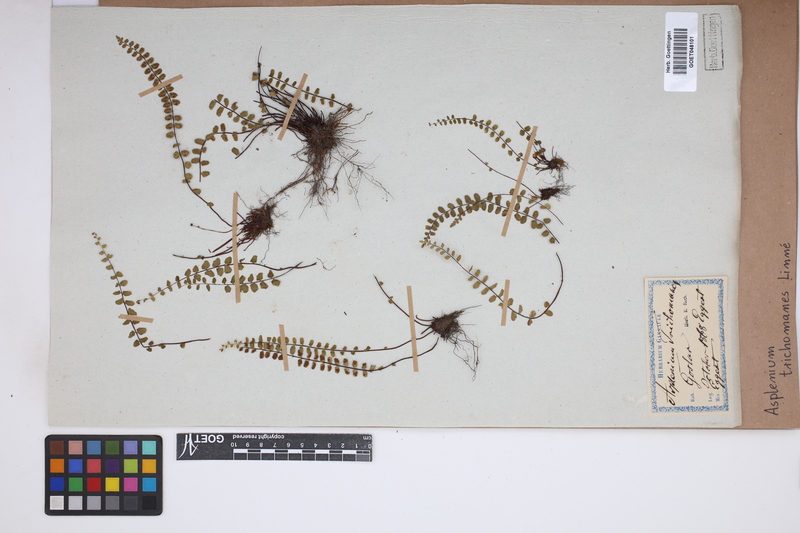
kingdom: Plantae
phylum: Tracheophyta
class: Polypodiopsida
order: Polypodiales
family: Aspleniaceae
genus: Asplenium
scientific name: Asplenium trichomanes
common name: Maidenhair spleenwort
